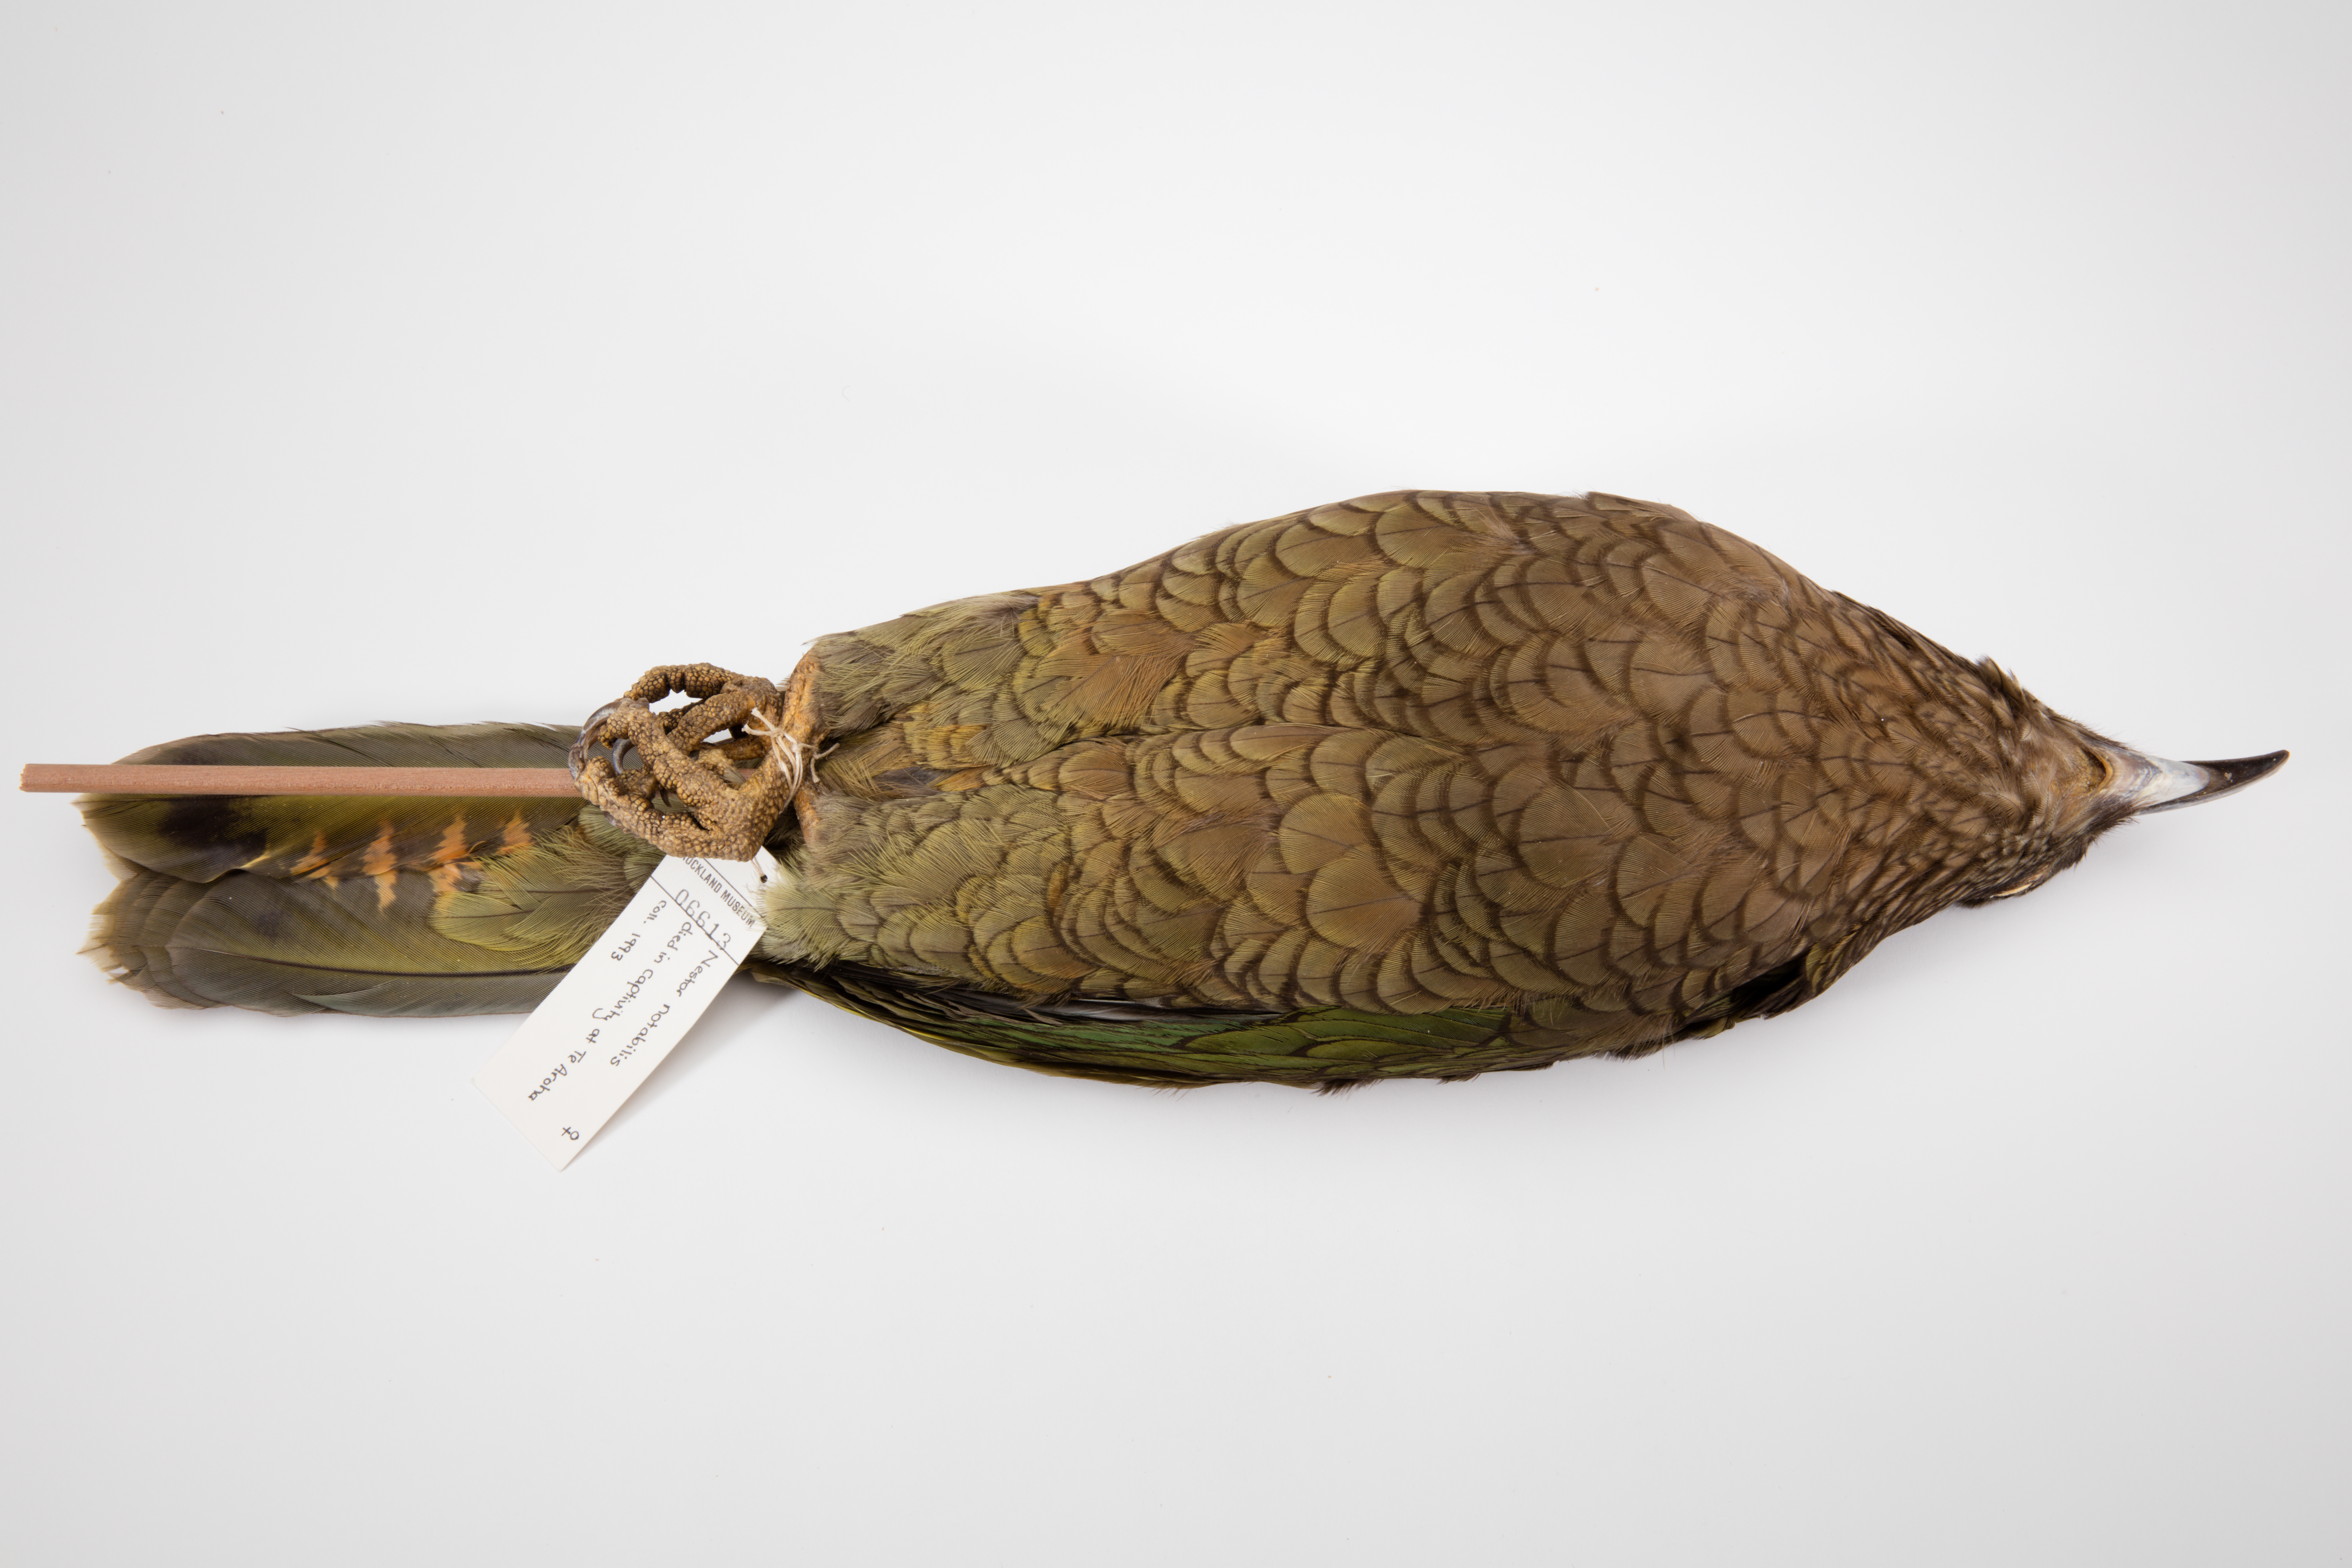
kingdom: Animalia
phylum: Chordata
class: Aves
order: Psittaciformes
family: Psittacidae
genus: Nestor
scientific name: Nestor notabilis
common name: Kea
